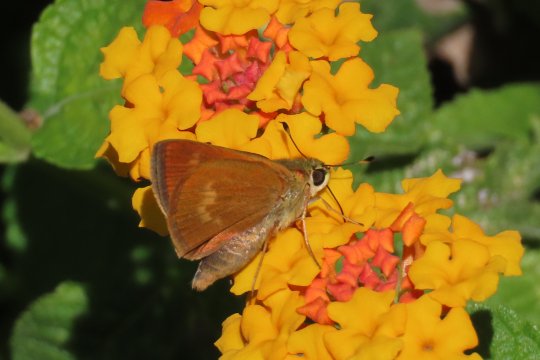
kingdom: Animalia
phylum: Arthropoda
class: Insecta
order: Lepidoptera
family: Hesperiidae
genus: Wallengrenia
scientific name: Wallengrenia otho
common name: Southern Broken-Dash
